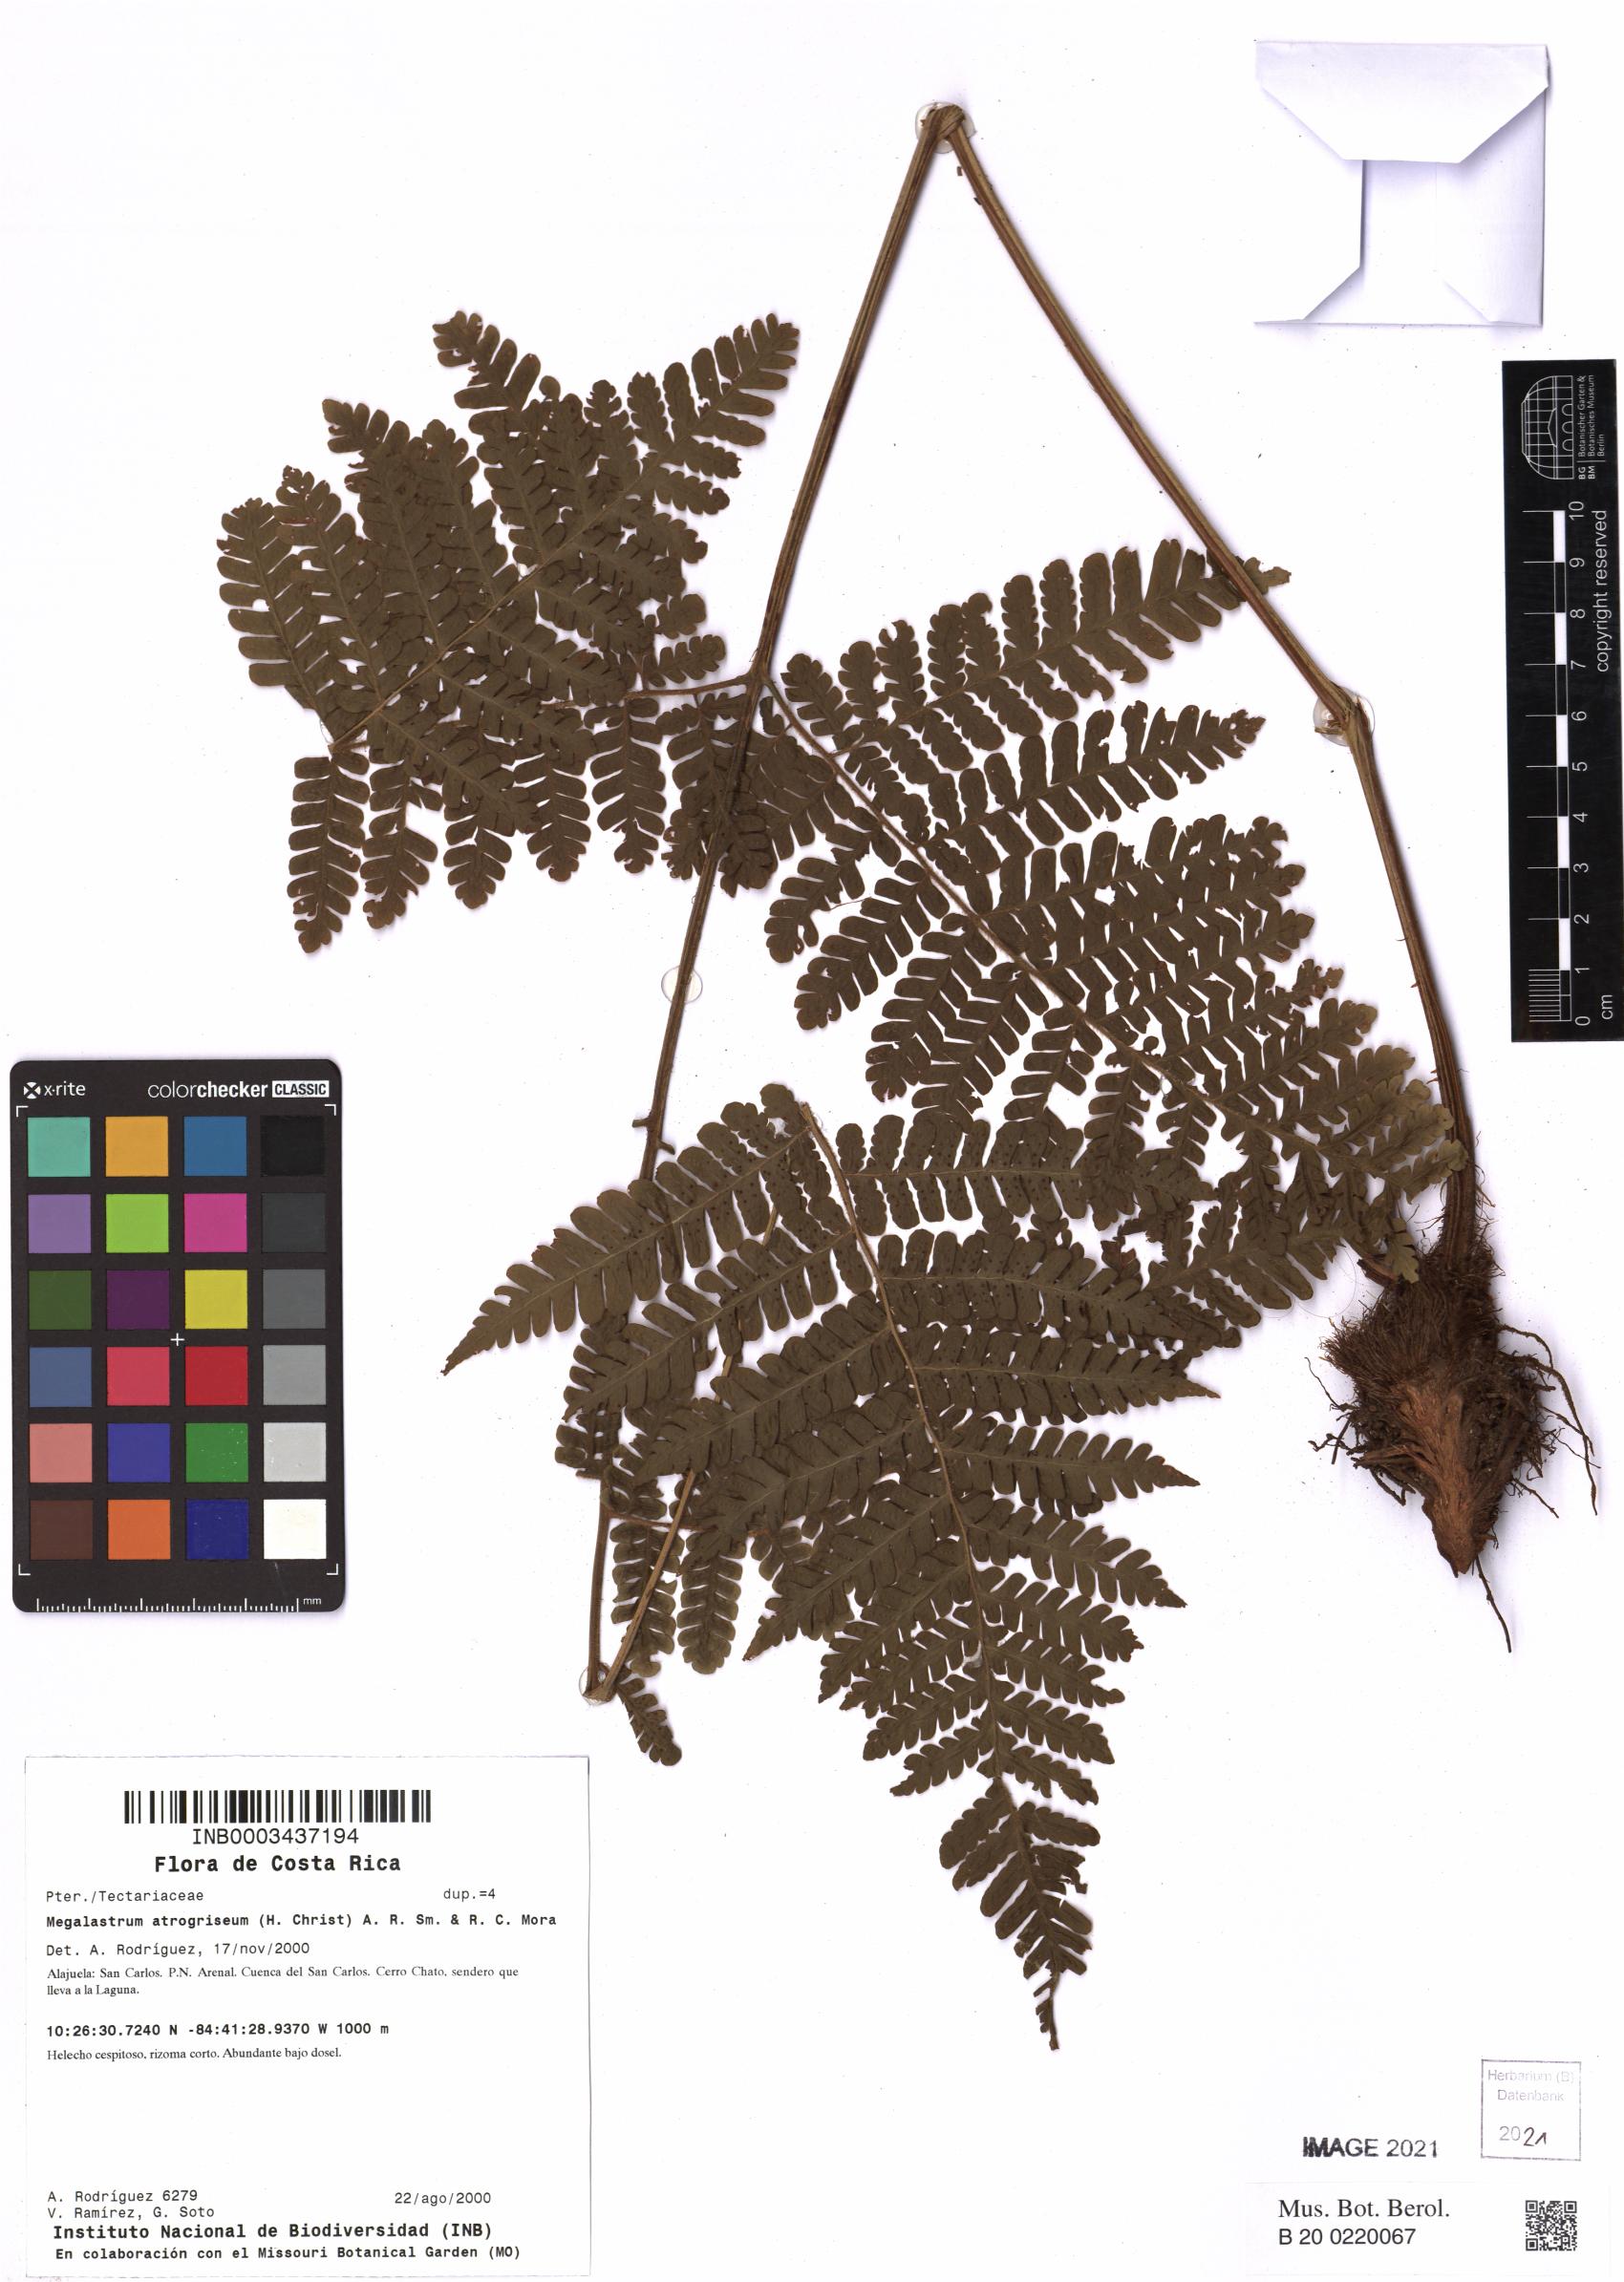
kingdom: Plantae
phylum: Tracheophyta
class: Polypodiopsida
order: Polypodiales
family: Dryopteridaceae
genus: Megalastrum
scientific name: Megalastrum atrogriseum
